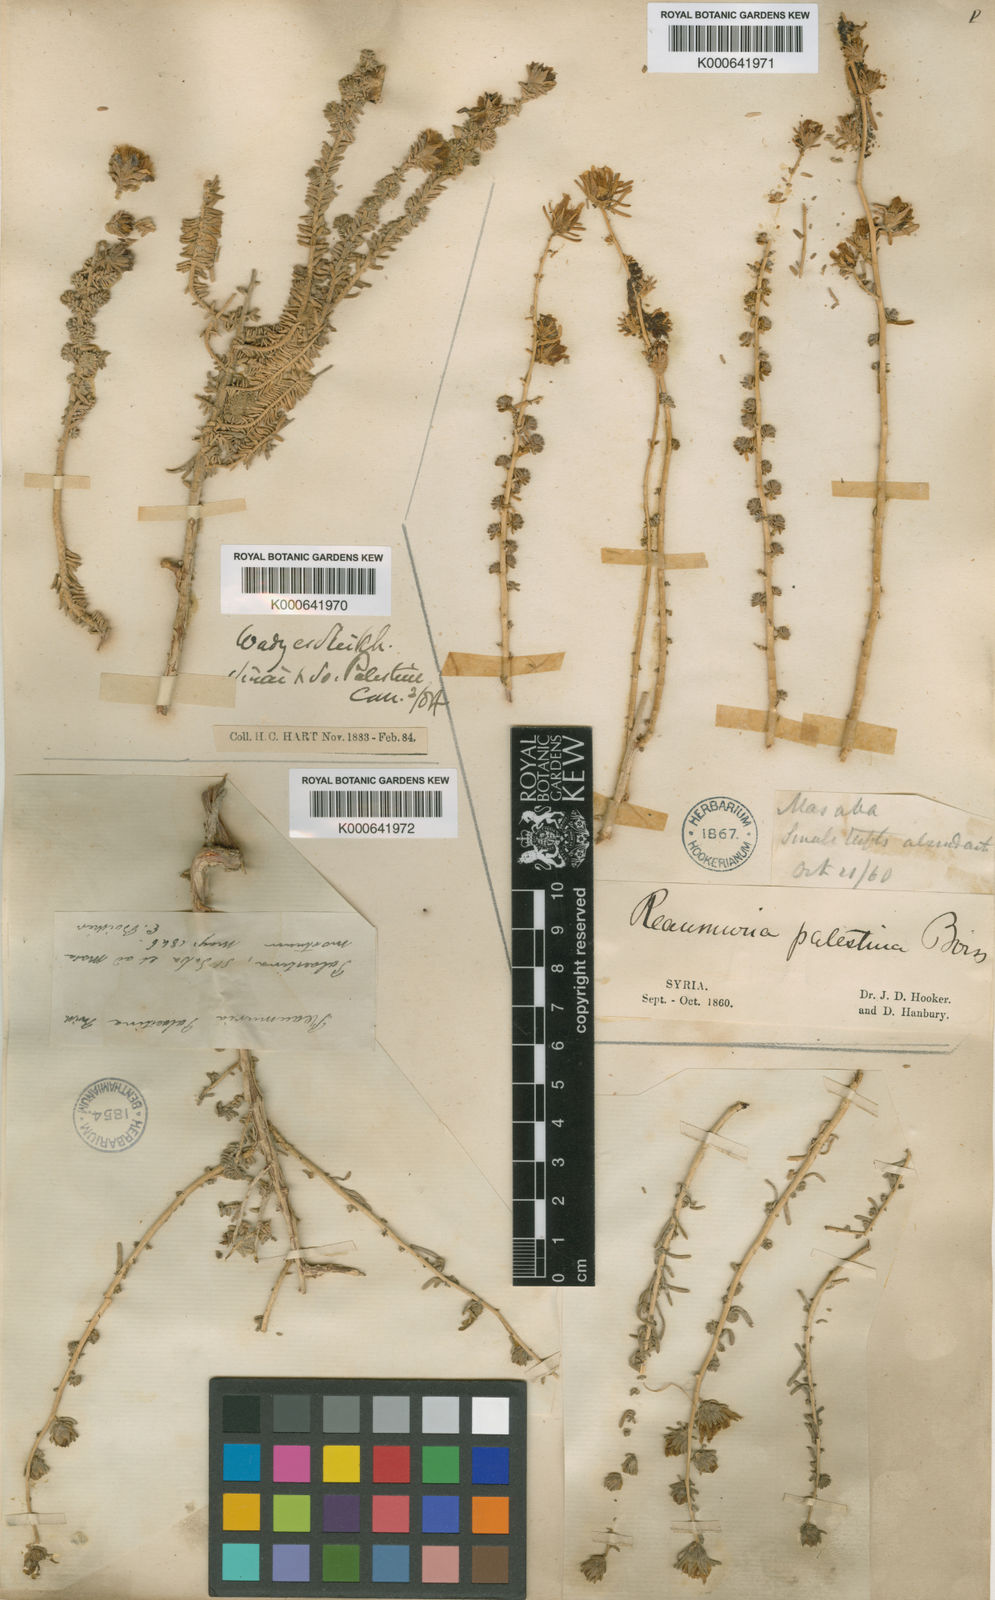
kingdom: Plantae
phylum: Tracheophyta
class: Magnoliopsida
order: Caryophyllales
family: Tamaricaceae
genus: Reaumuria
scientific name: Reaumuria hirtella
